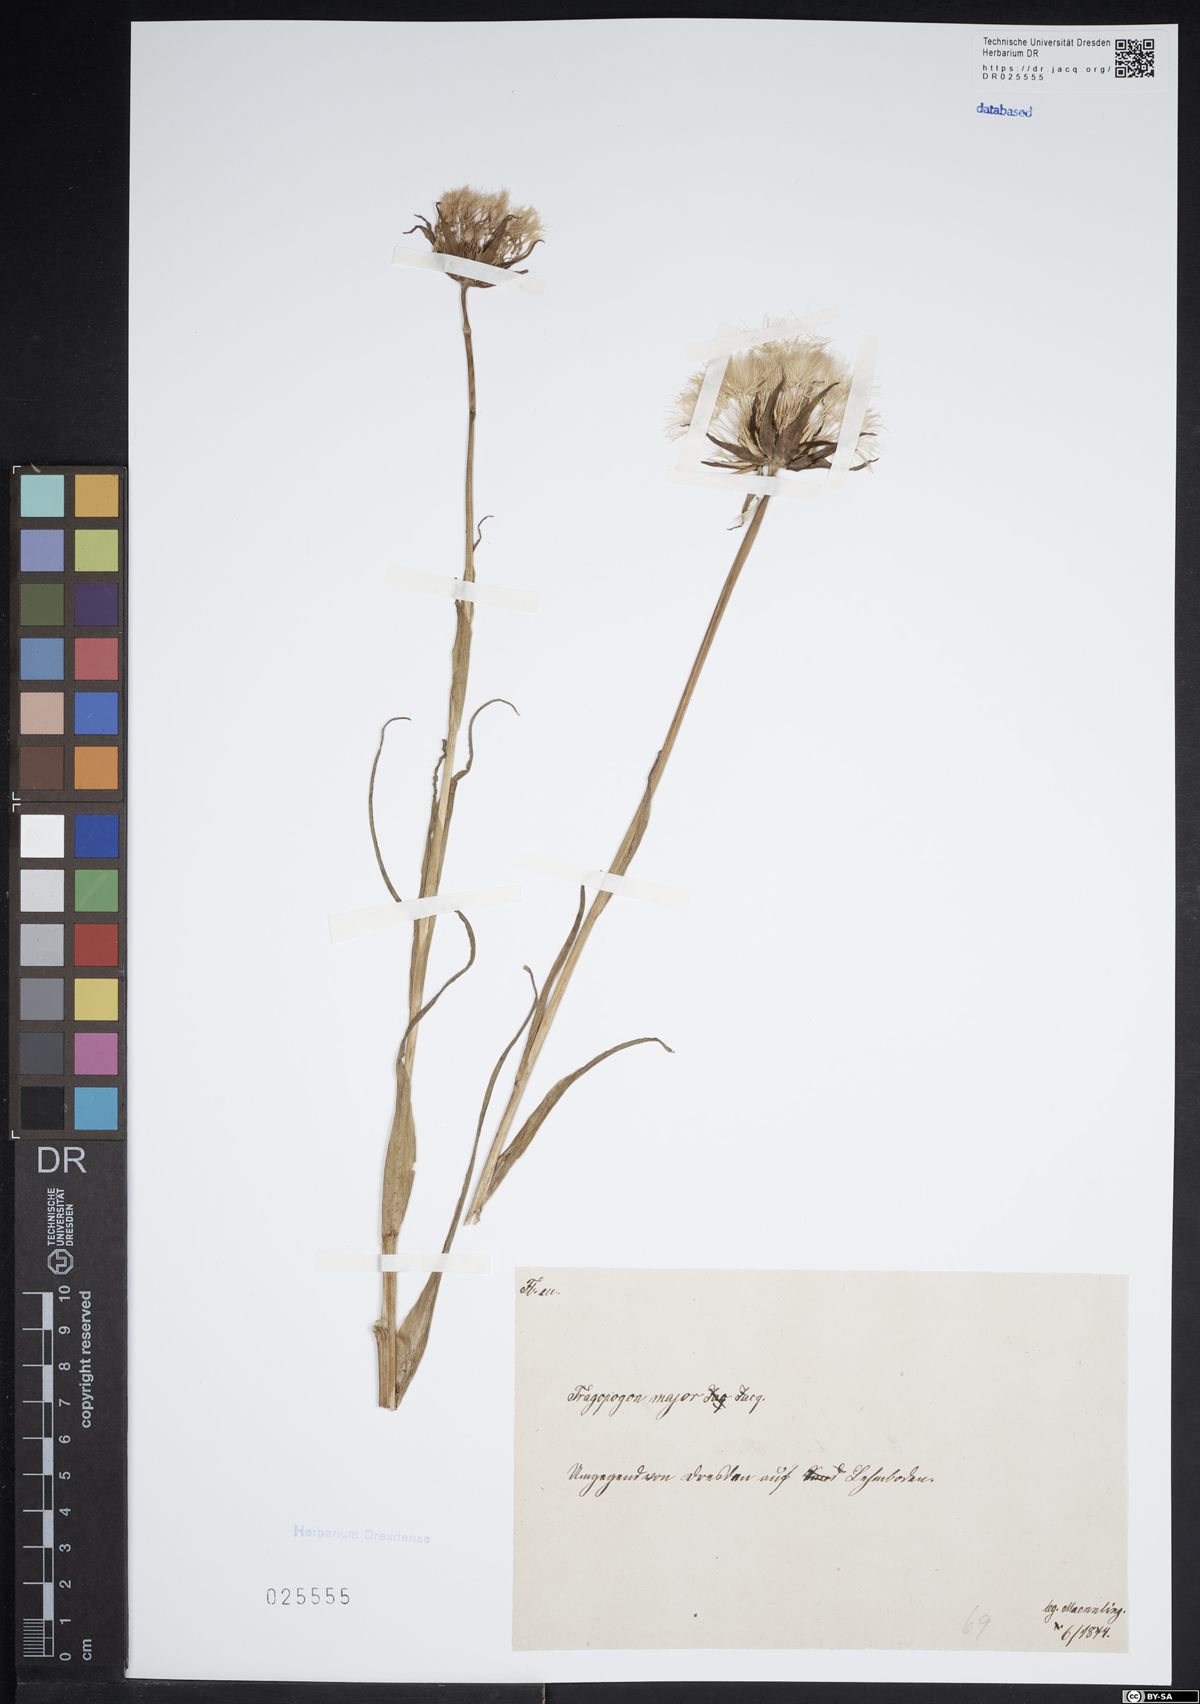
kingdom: Plantae
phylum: Tracheophyta
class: Magnoliopsida
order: Asterales
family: Asteraceae
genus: Tragopogon
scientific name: Tragopogon dubius
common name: Yellow salsify
